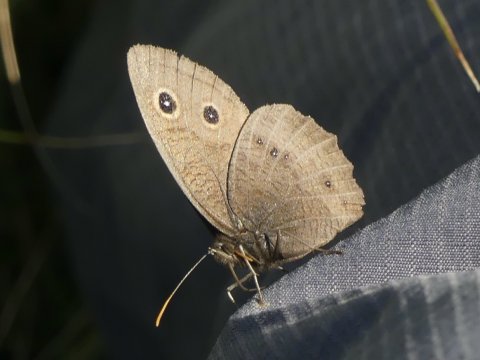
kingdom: Animalia
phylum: Arthropoda
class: Insecta
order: Lepidoptera
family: Nymphalidae
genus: Cercyonis
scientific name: Cercyonis pegala
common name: Common Wood-Nymph
